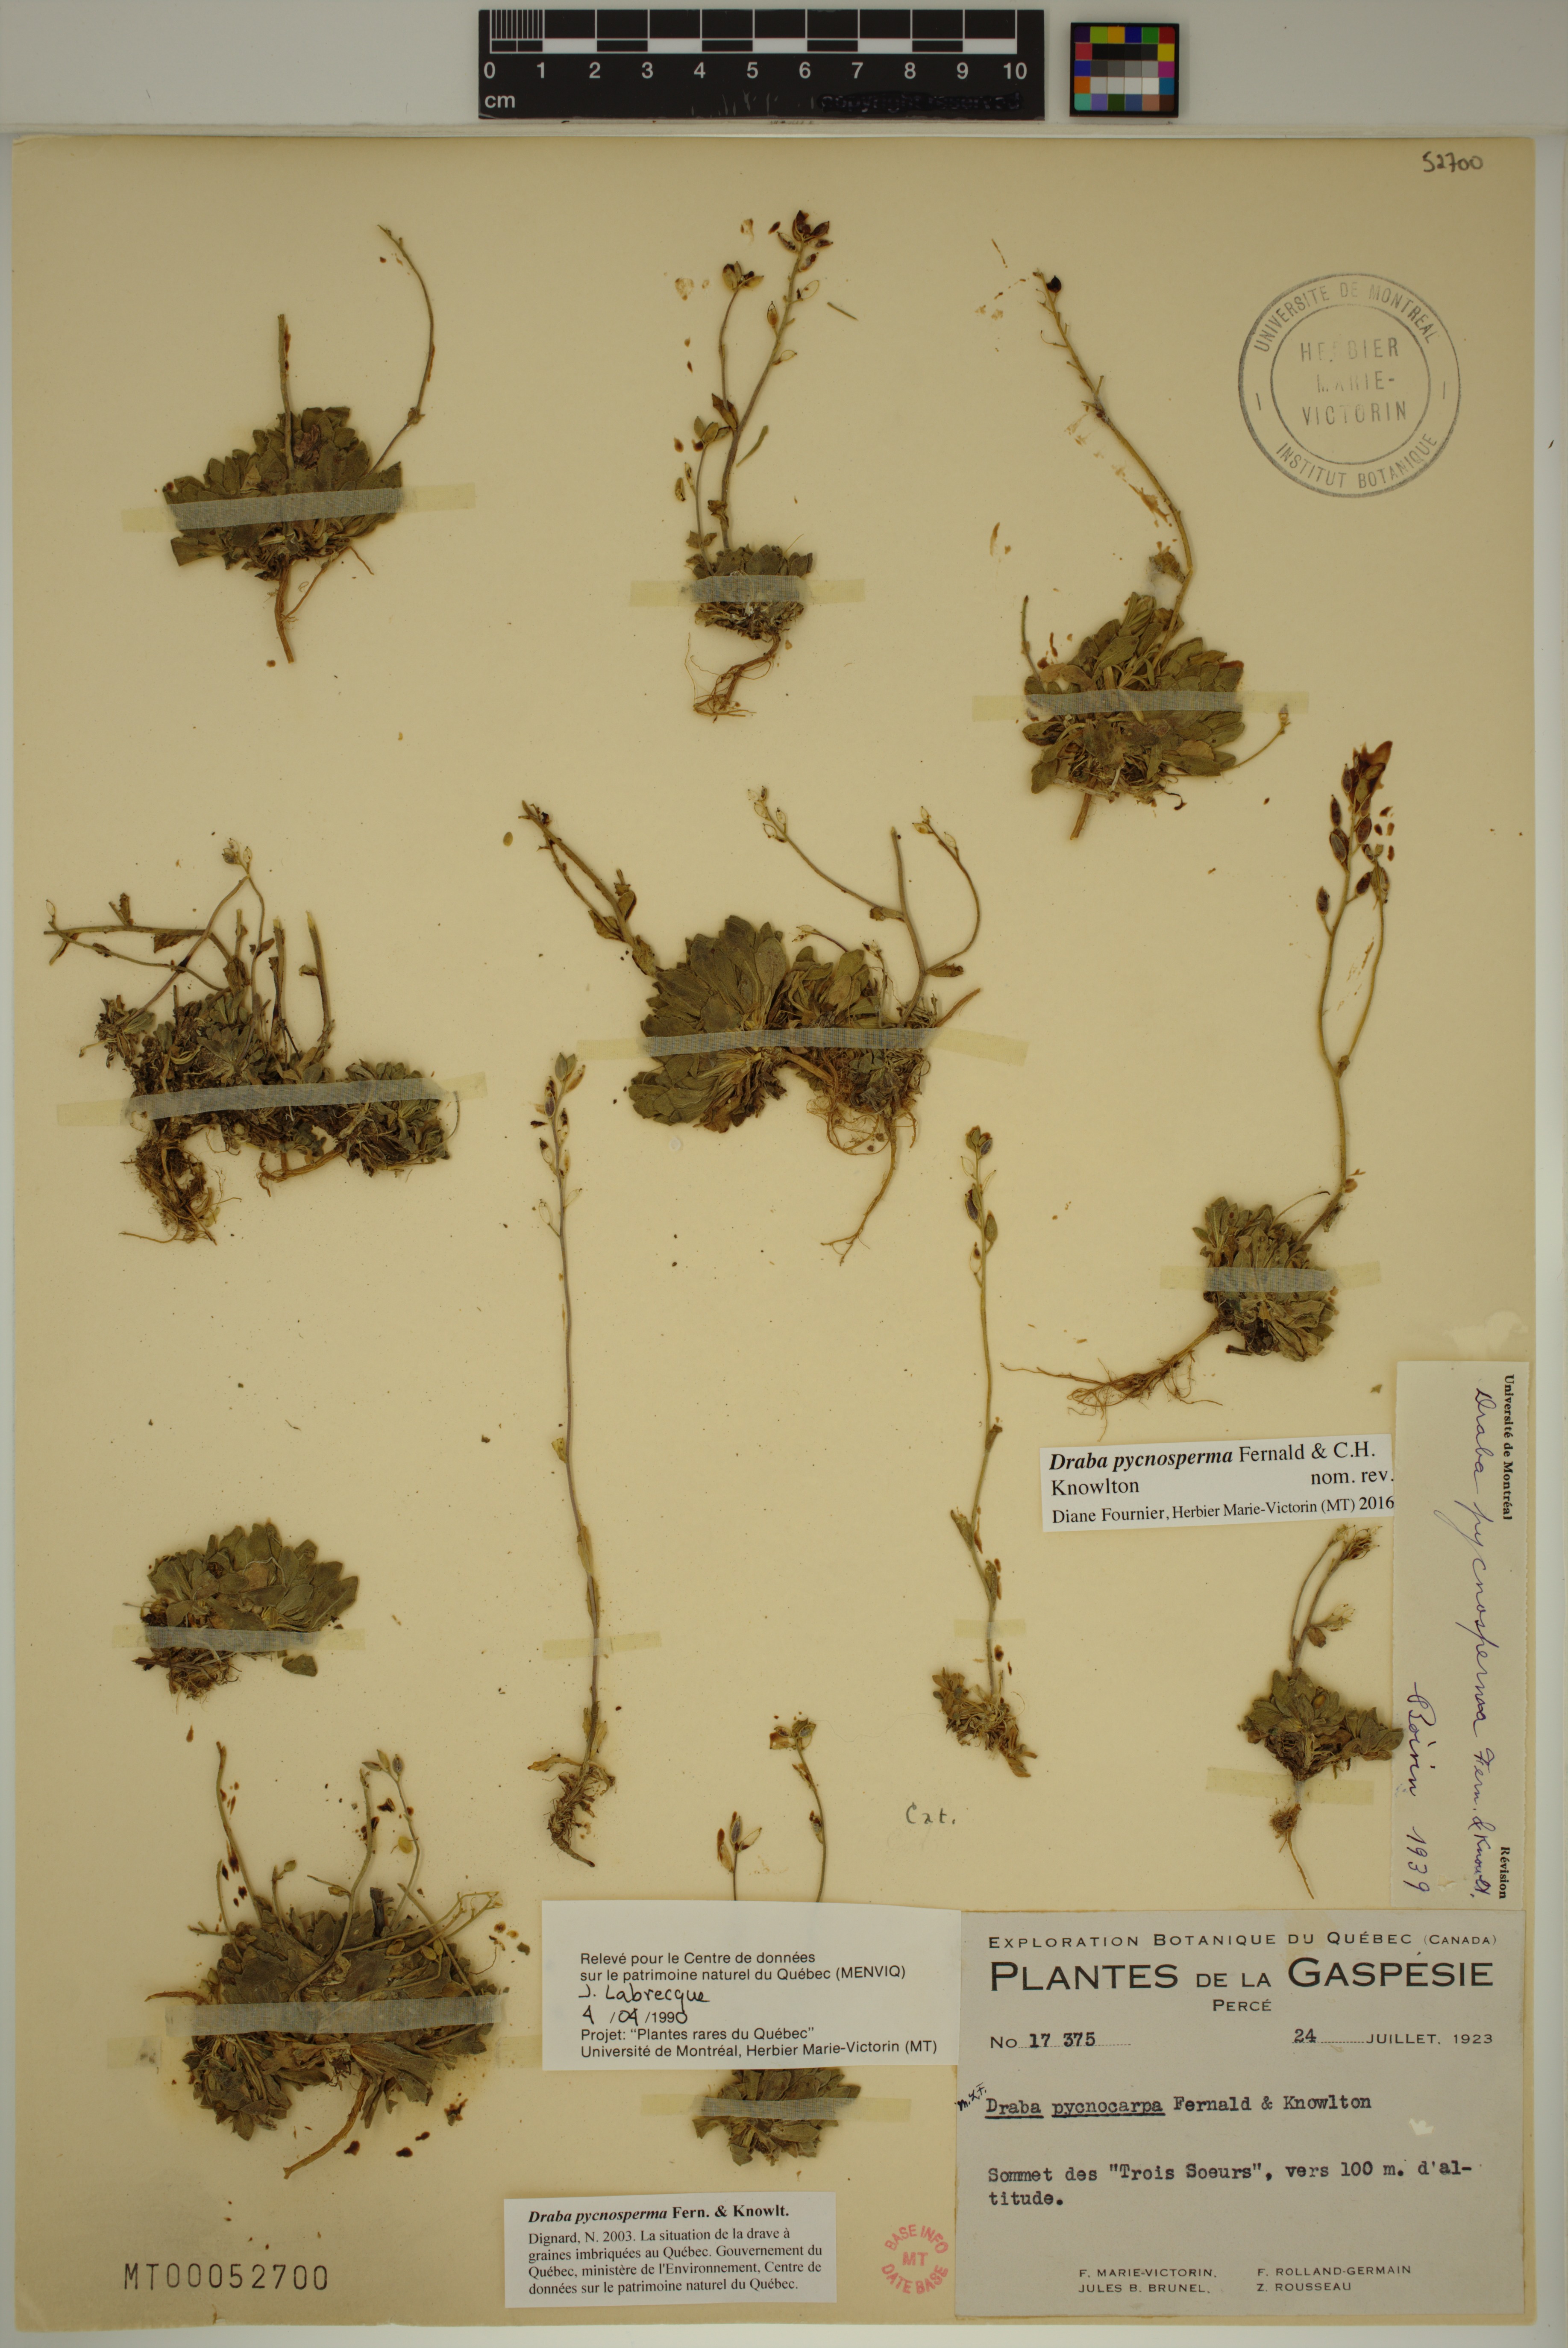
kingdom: Plantae
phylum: Tracheophyta
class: Magnoliopsida
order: Brassicales
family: Brassicaceae
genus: Draba
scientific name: Draba pycnosperma
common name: Dense draba
